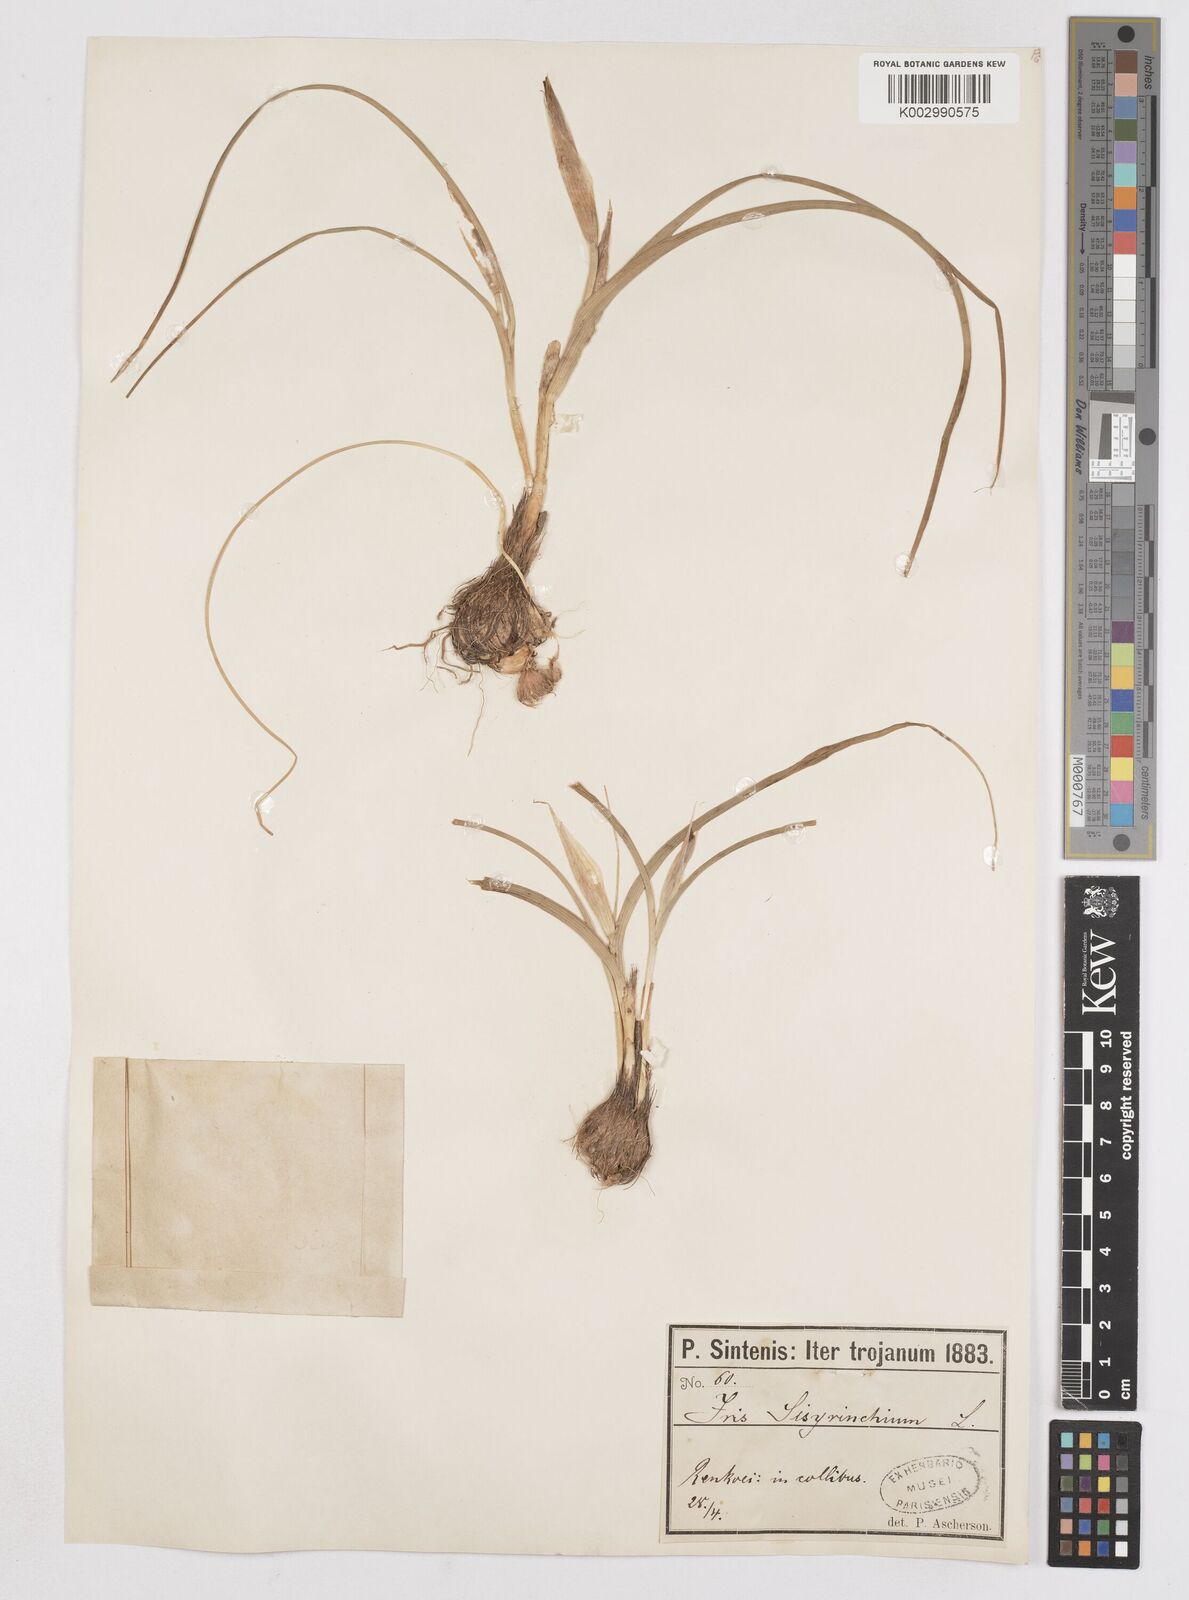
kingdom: Plantae
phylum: Tracheophyta
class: Liliopsida
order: Asparagales
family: Iridaceae
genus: Moraea
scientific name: Moraea sisyrinchium
